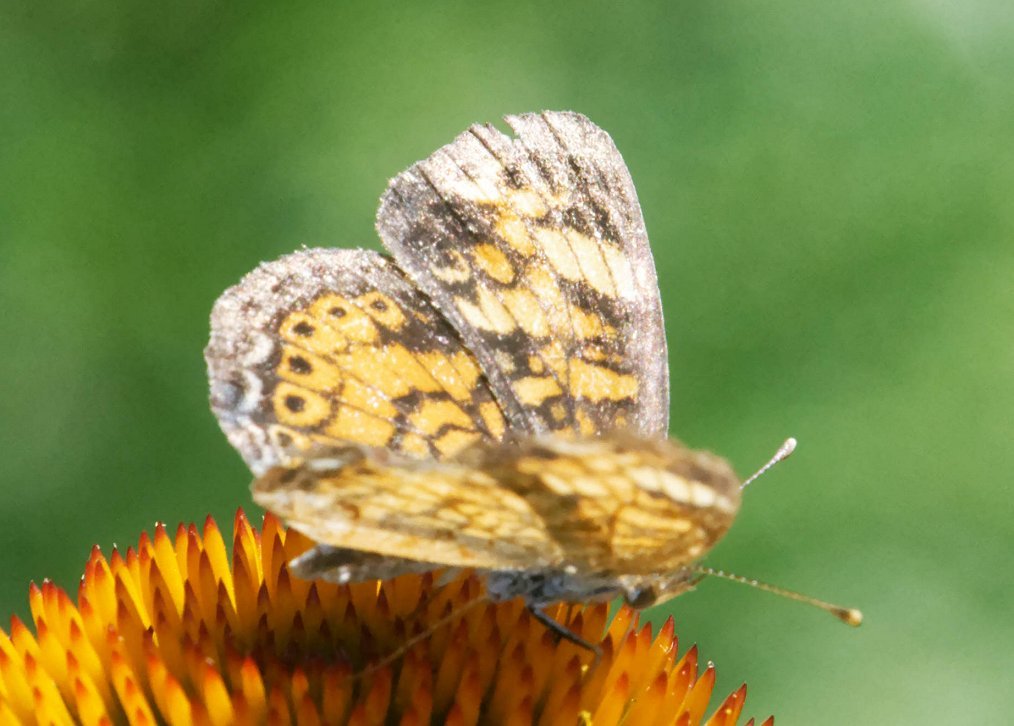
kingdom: Animalia
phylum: Arthropoda
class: Insecta
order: Lepidoptera
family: Nymphalidae
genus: Phyciodes
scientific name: Phyciodes
